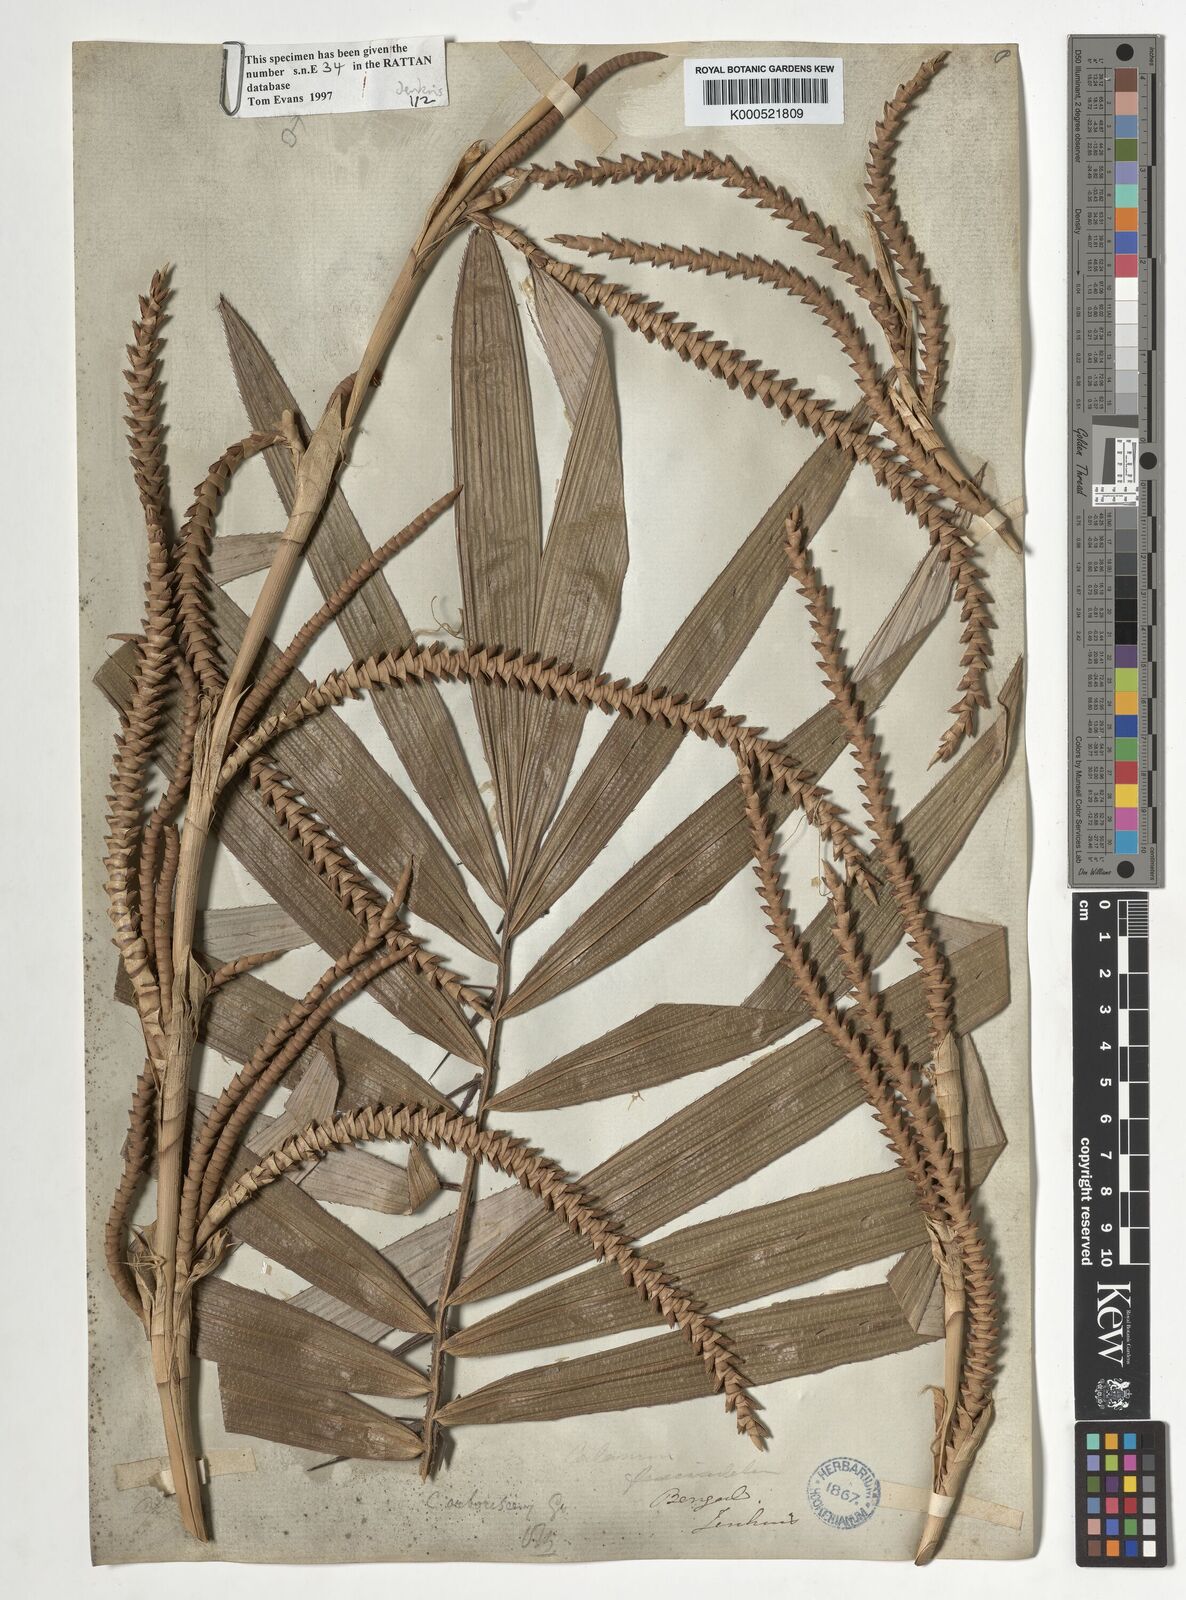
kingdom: Plantae
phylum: Tracheophyta
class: Liliopsida
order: Arecales
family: Arecaceae
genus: Calamus
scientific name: Calamus arborescens
